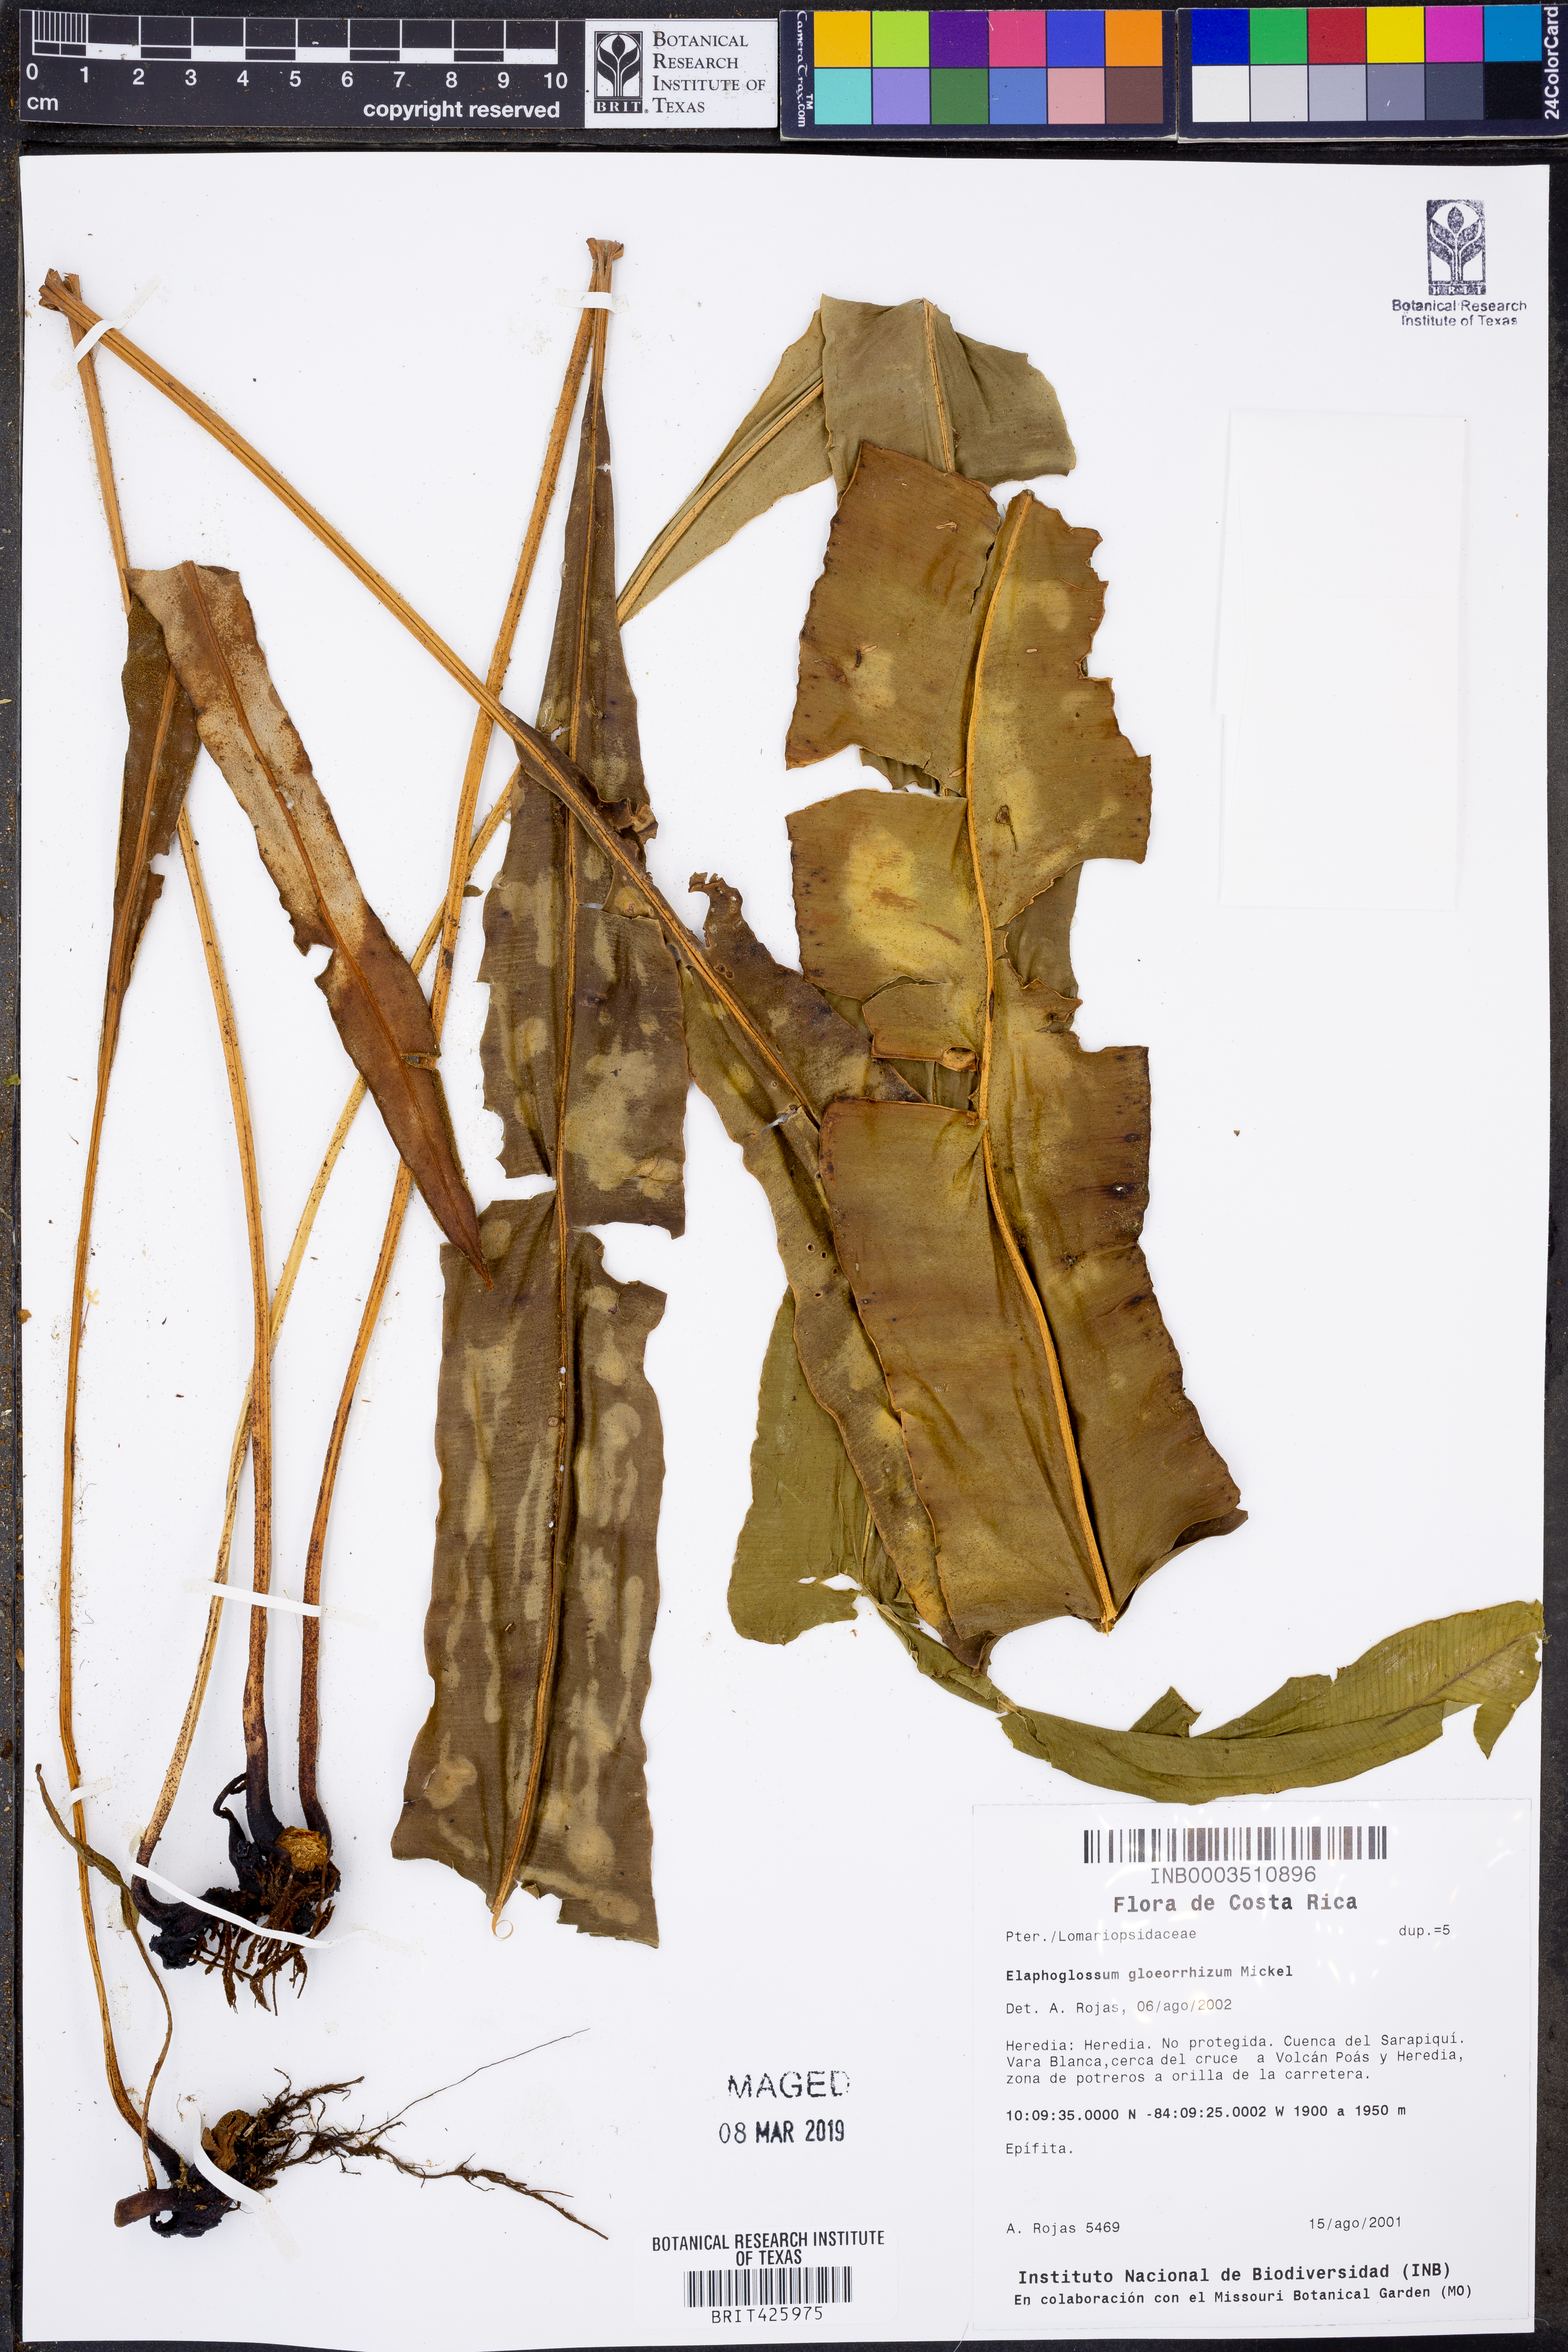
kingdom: Plantae
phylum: Tracheophyta
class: Polypodiopsida
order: Polypodiales
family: Dryopteridaceae
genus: Elaphoglossum
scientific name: Elaphoglossum gloeorrhizum
